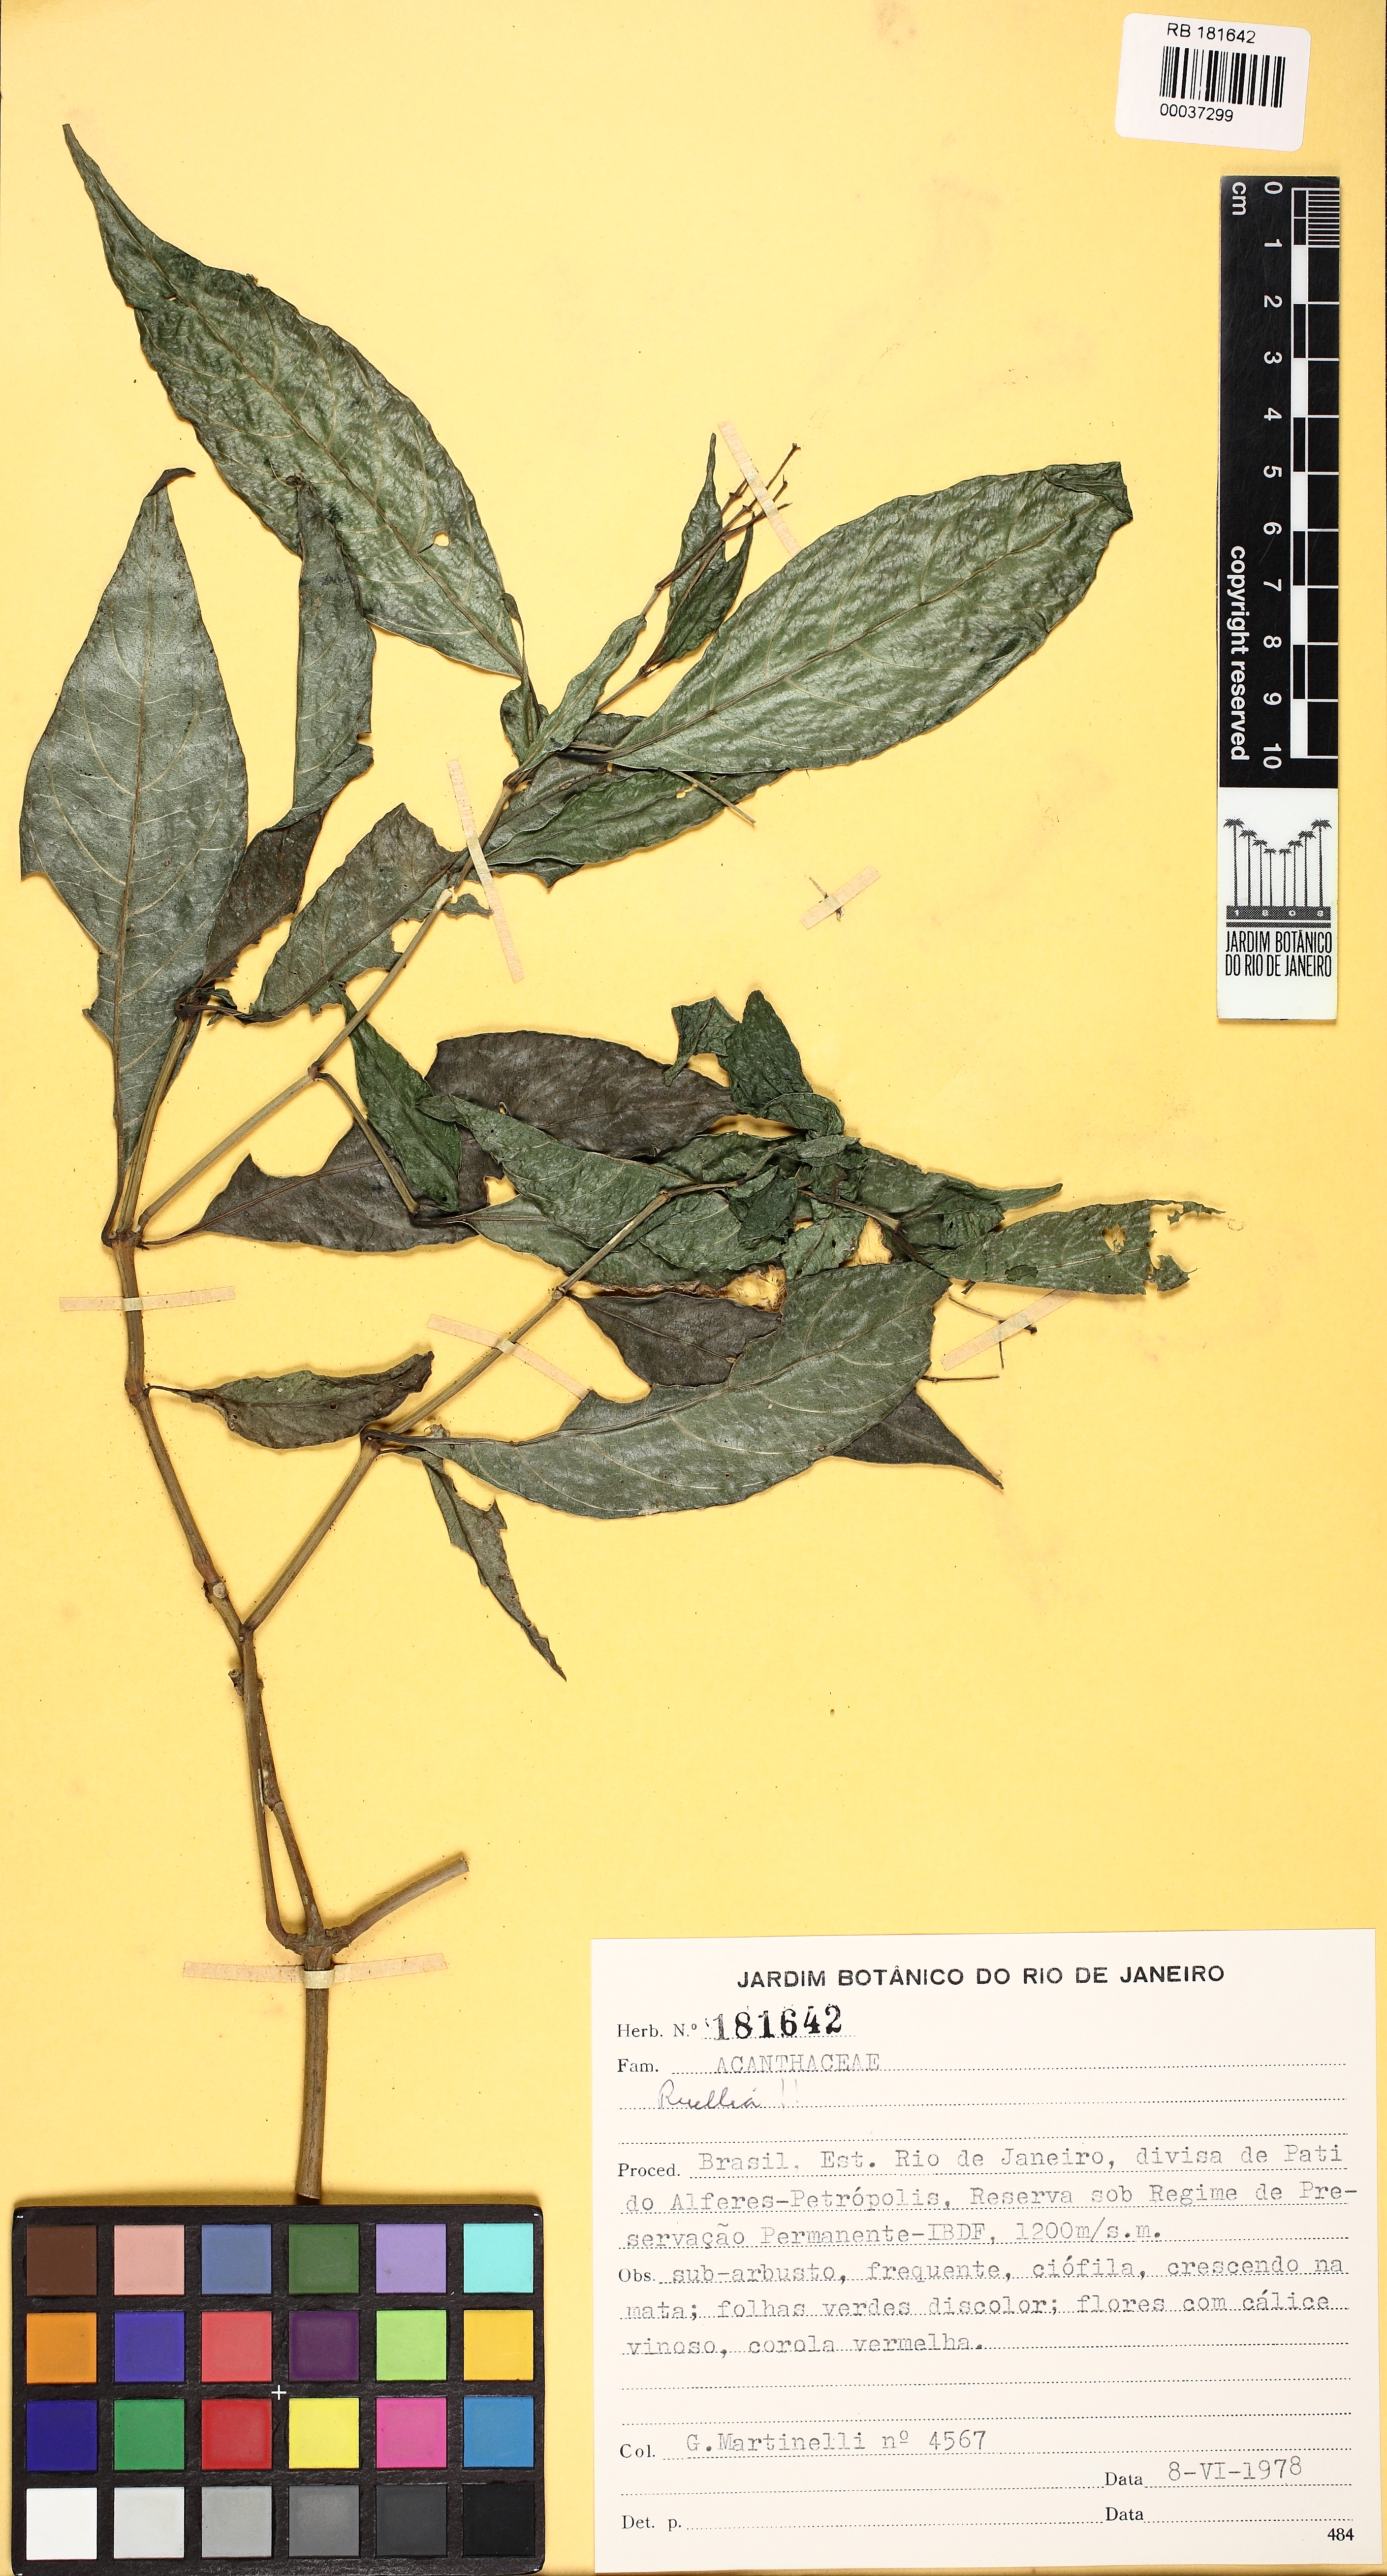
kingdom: Plantae
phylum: Tracheophyta
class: Magnoliopsida
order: Lamiales
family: Acanthaceae
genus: Ruellia
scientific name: Ruellia
